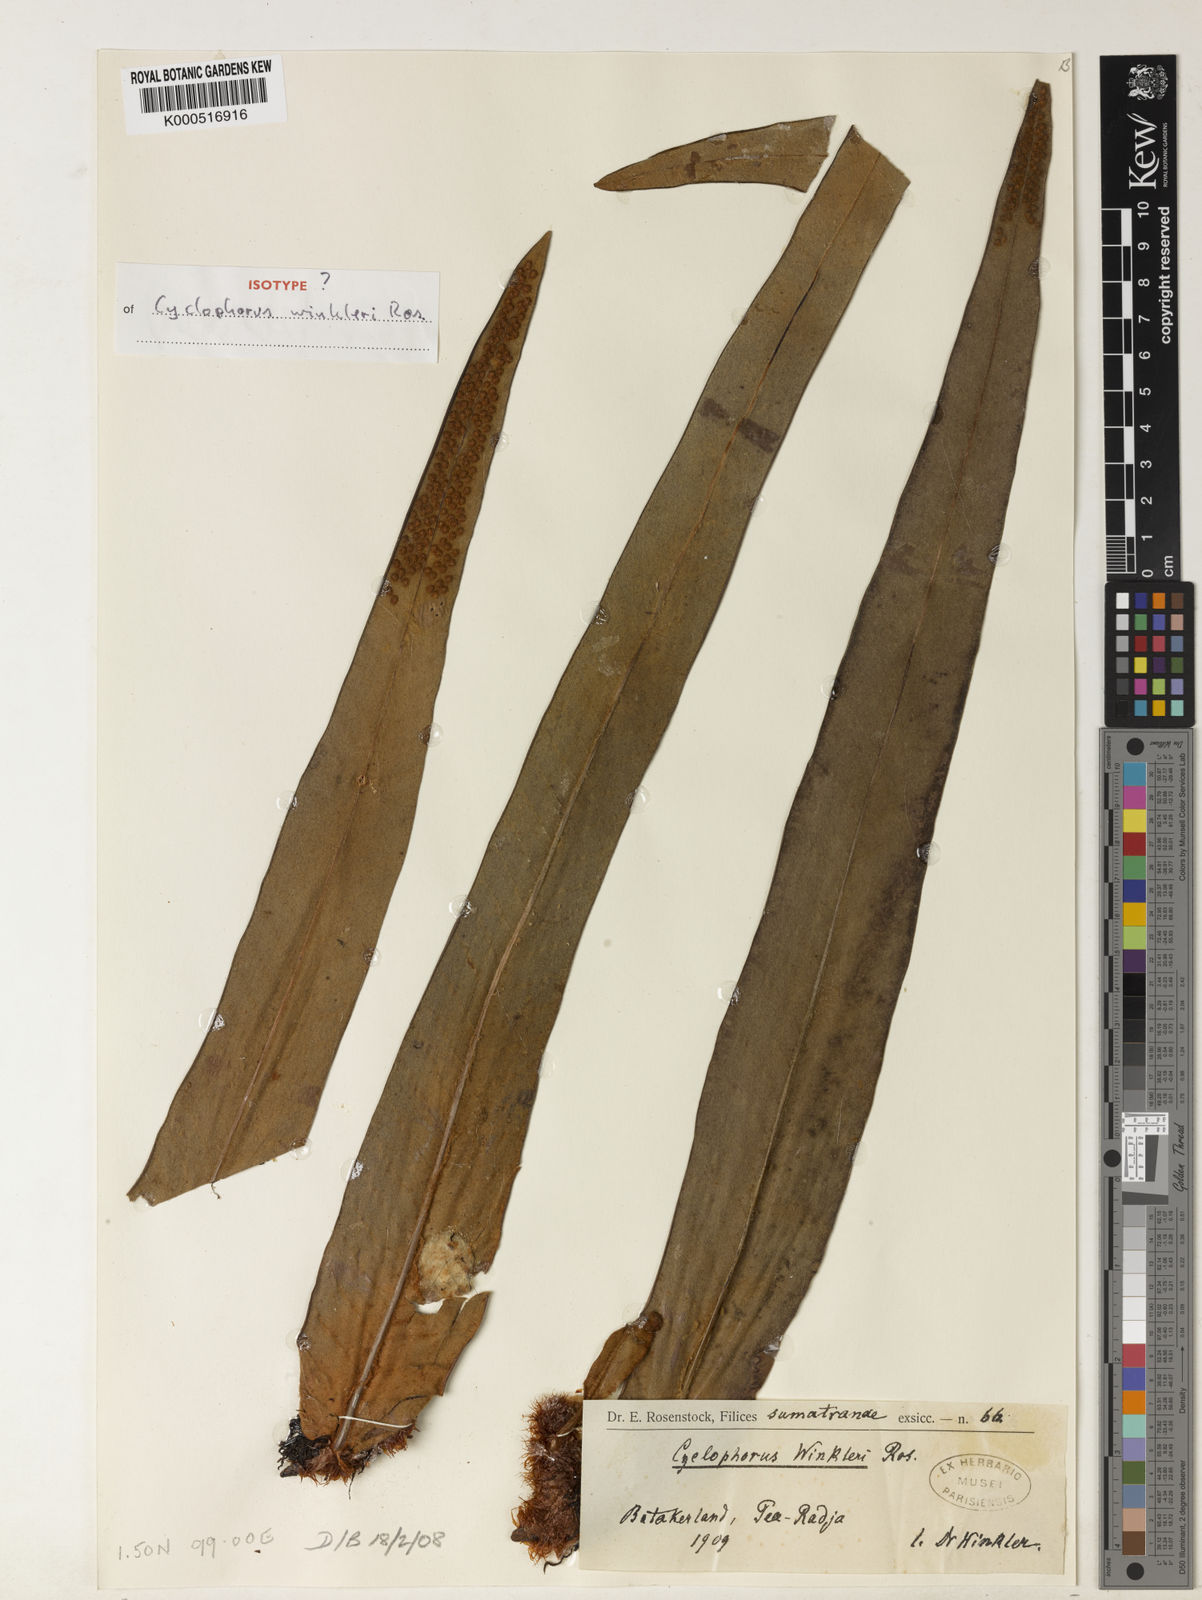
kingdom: Plantae
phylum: Tracheophyta
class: Polypodiopsida
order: Polypodiales
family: Polypodiaceae
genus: Pyrrosia
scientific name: Pyrrosia distichocarpa
